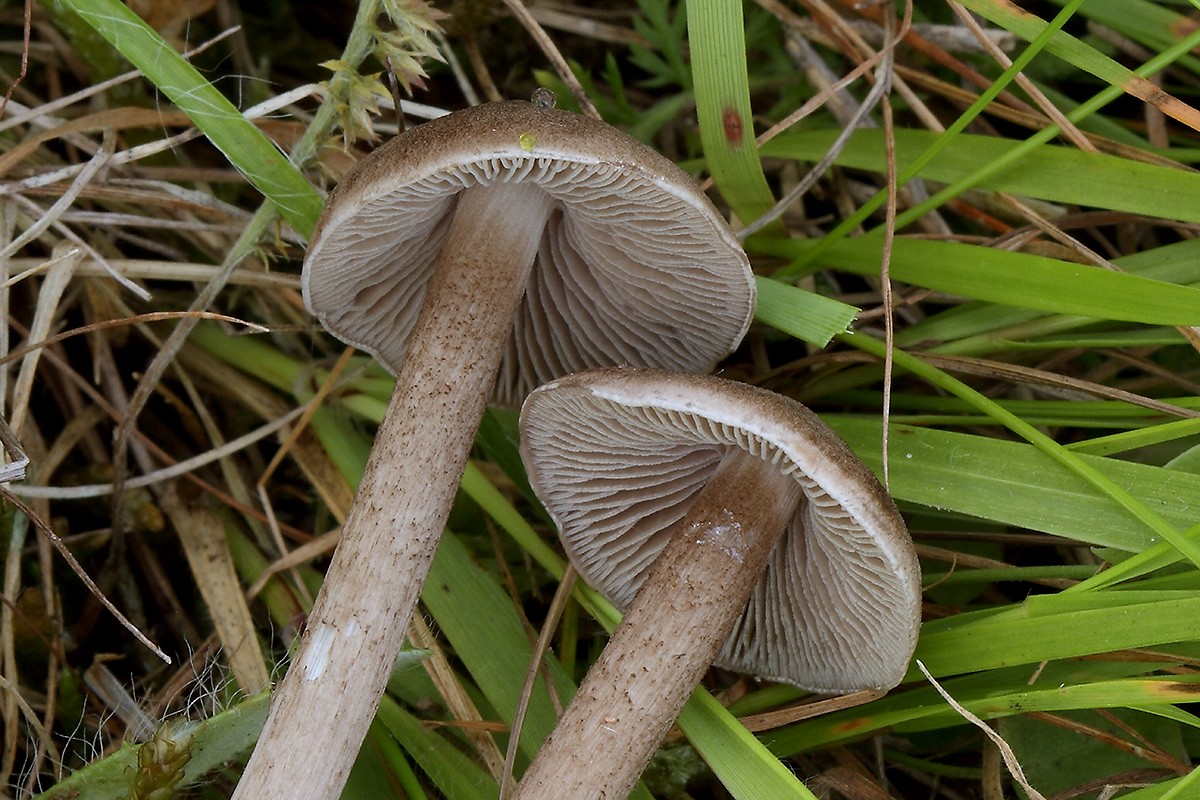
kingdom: Fungi
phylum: Basidiomycota
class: Agaricomycetes
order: Agaricales
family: Entolomataceae
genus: Entoloma
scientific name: Entoloma jubatum
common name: ruskællet rødblad
